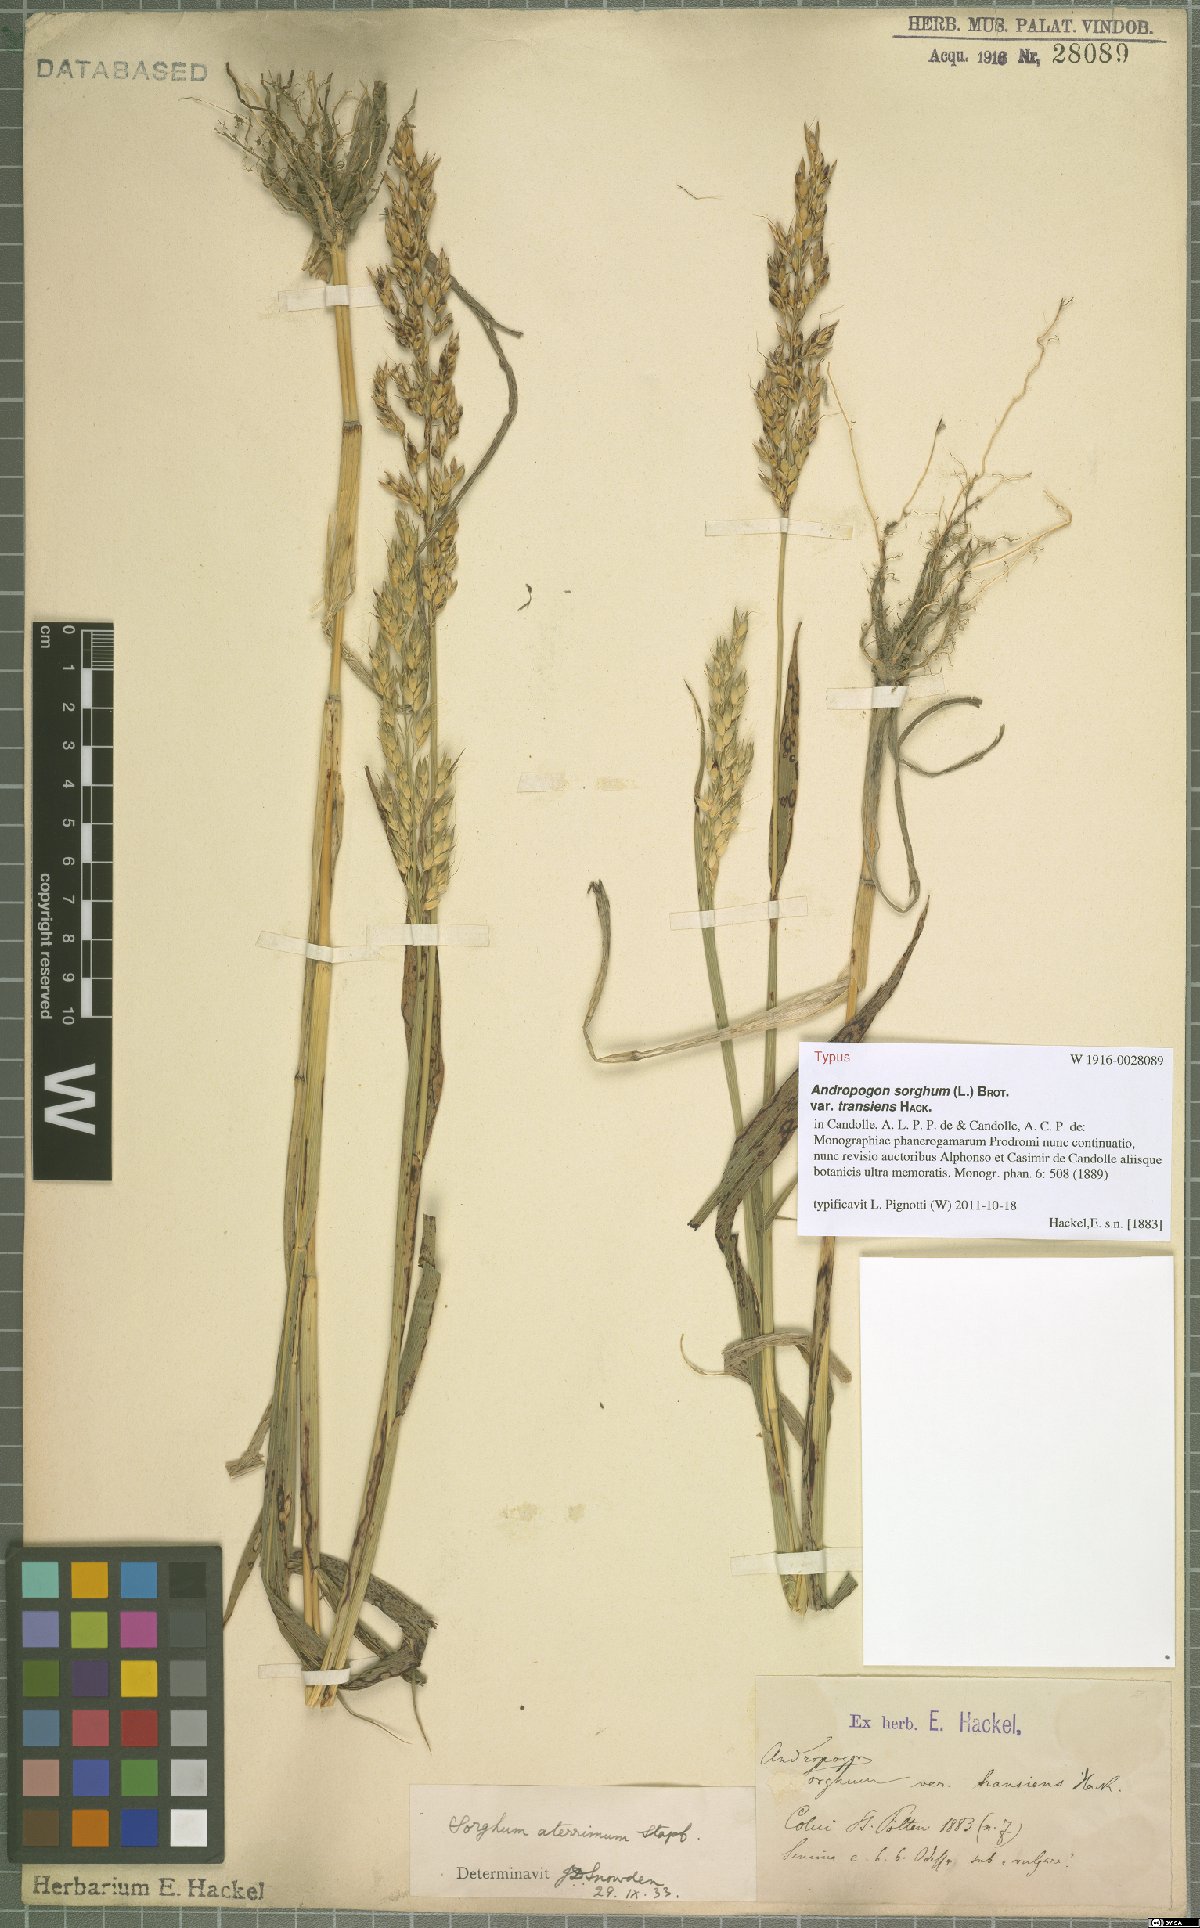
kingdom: Plantae
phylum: Tracheophyta
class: Liliopsida
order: Poales
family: Poaceae
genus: Sorghum
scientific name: Sorghum drummondii
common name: Sudangrass
